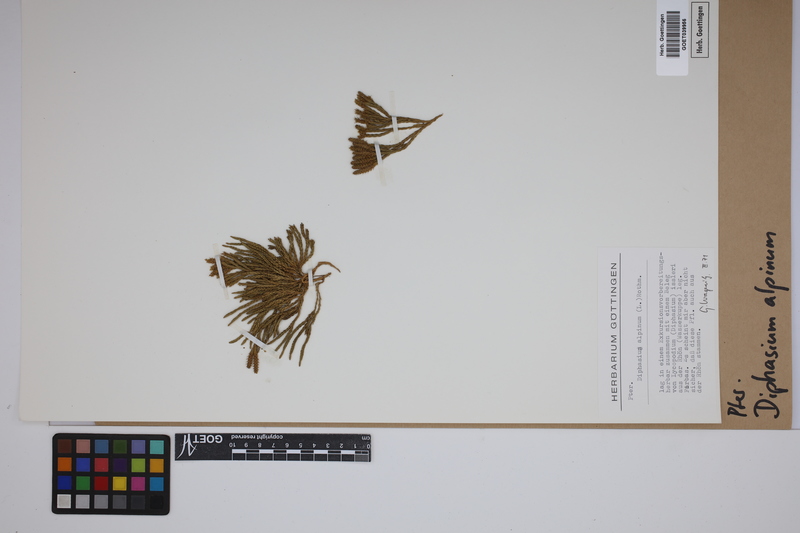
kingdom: Plantae
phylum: Tracheophyta
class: Lycopodiopsida
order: Lycopodiales
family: Lycopodiaceae
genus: Diphasiastrum
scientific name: Diphasiastrum alpinum
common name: Alpine clubmoss
